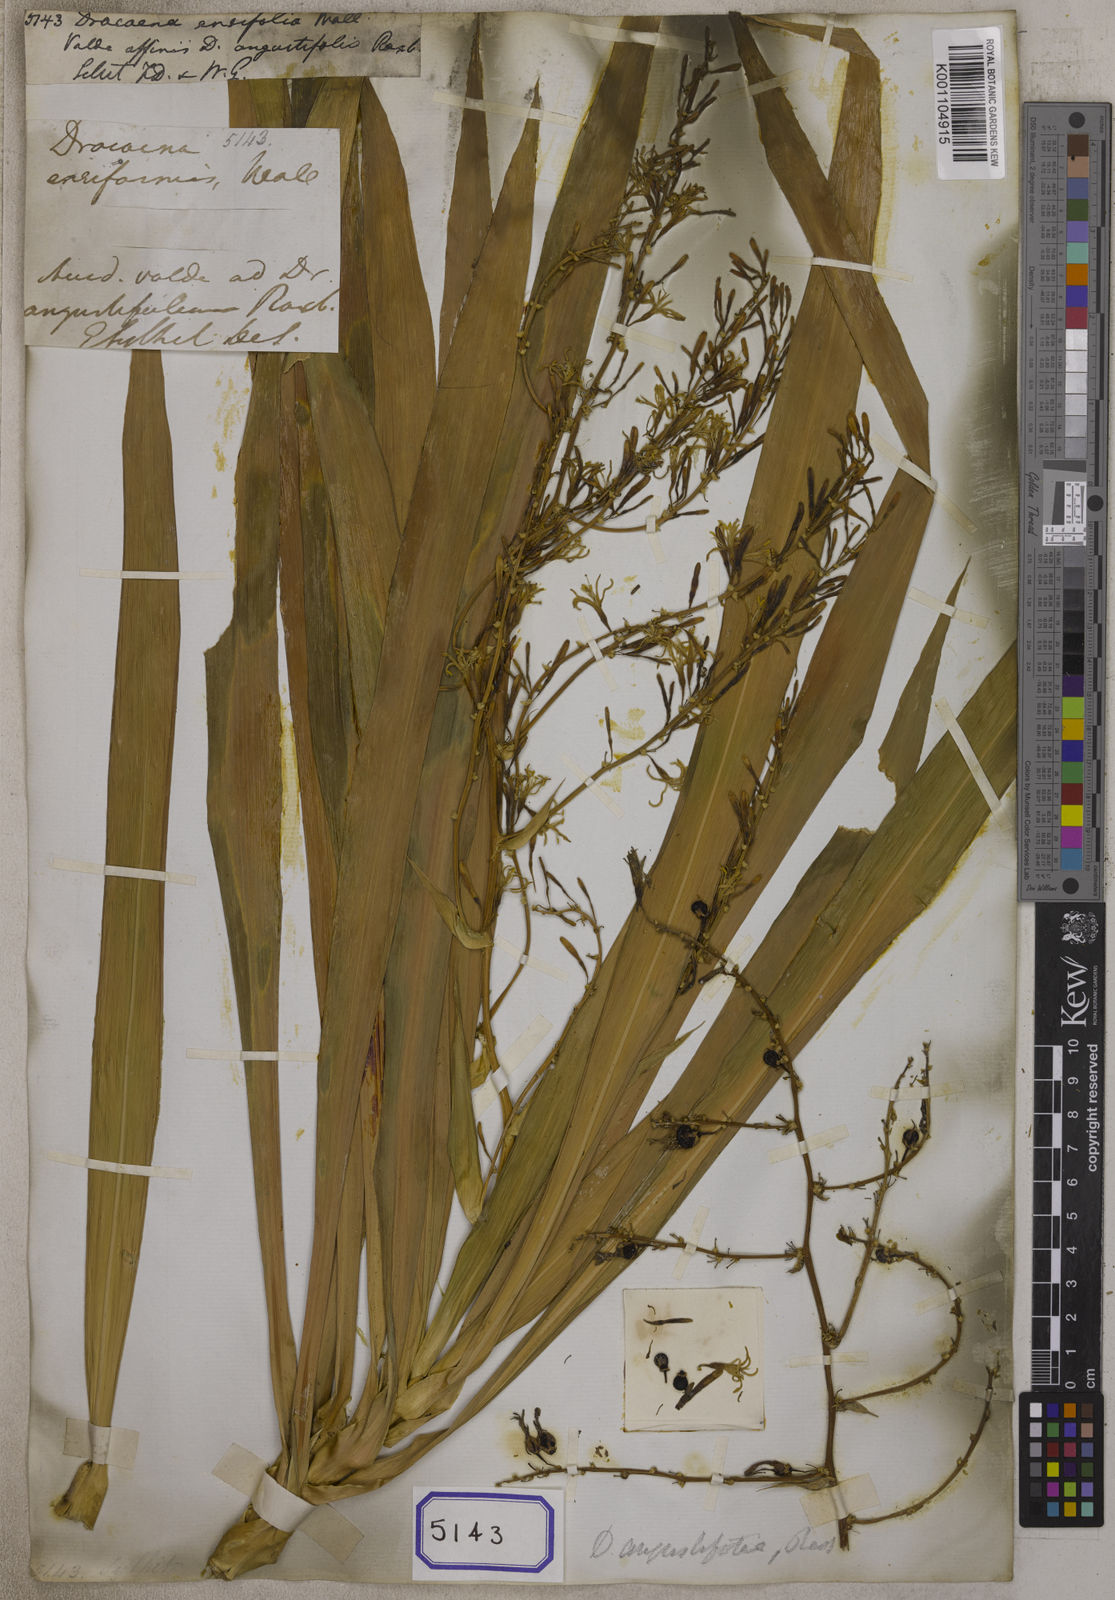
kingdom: Plantae
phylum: Tracheophyta
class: Liliopsida
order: Asparagales
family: Asparagaceae
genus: Dracaena
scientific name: Dracaena
